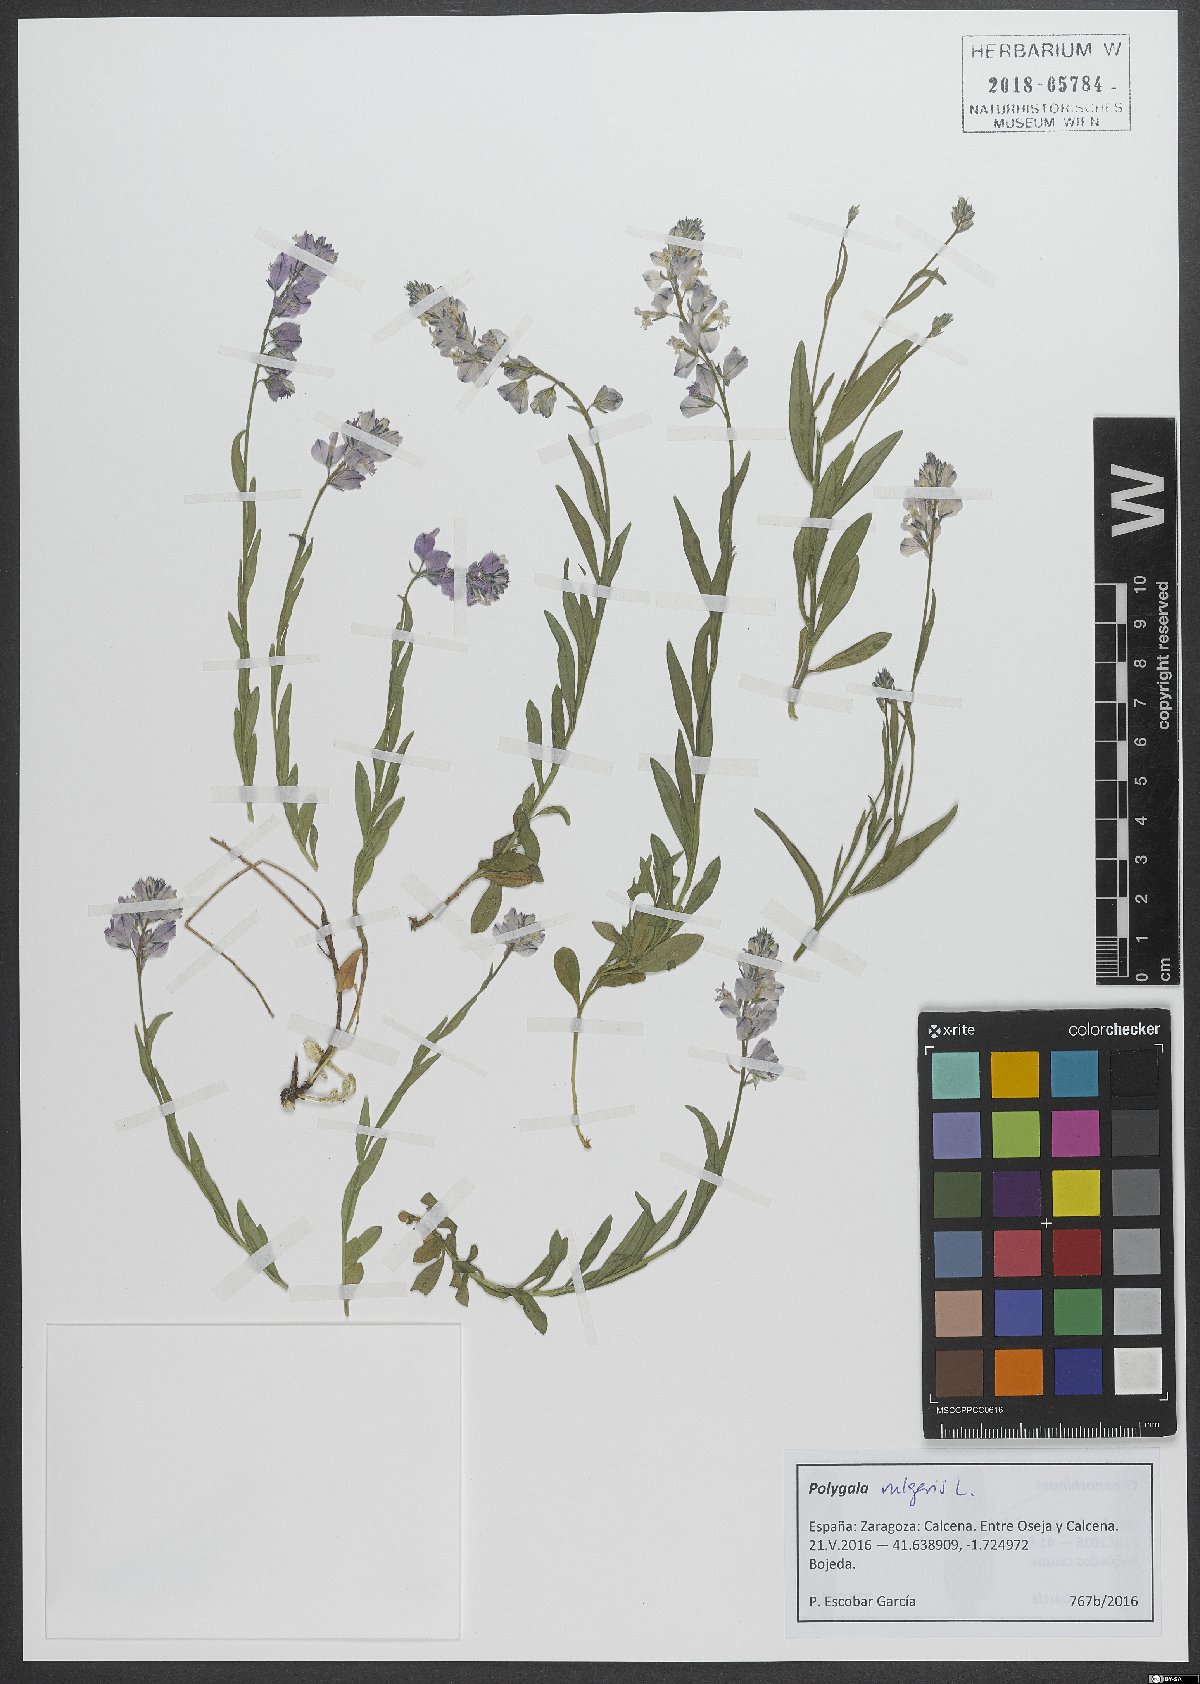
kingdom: Plantae
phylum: Tracheophyta
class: Magnoliopsida
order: Fabales
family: Polygalaceae
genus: Polygala
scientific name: Polygala vulgaris
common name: Common milkwort
